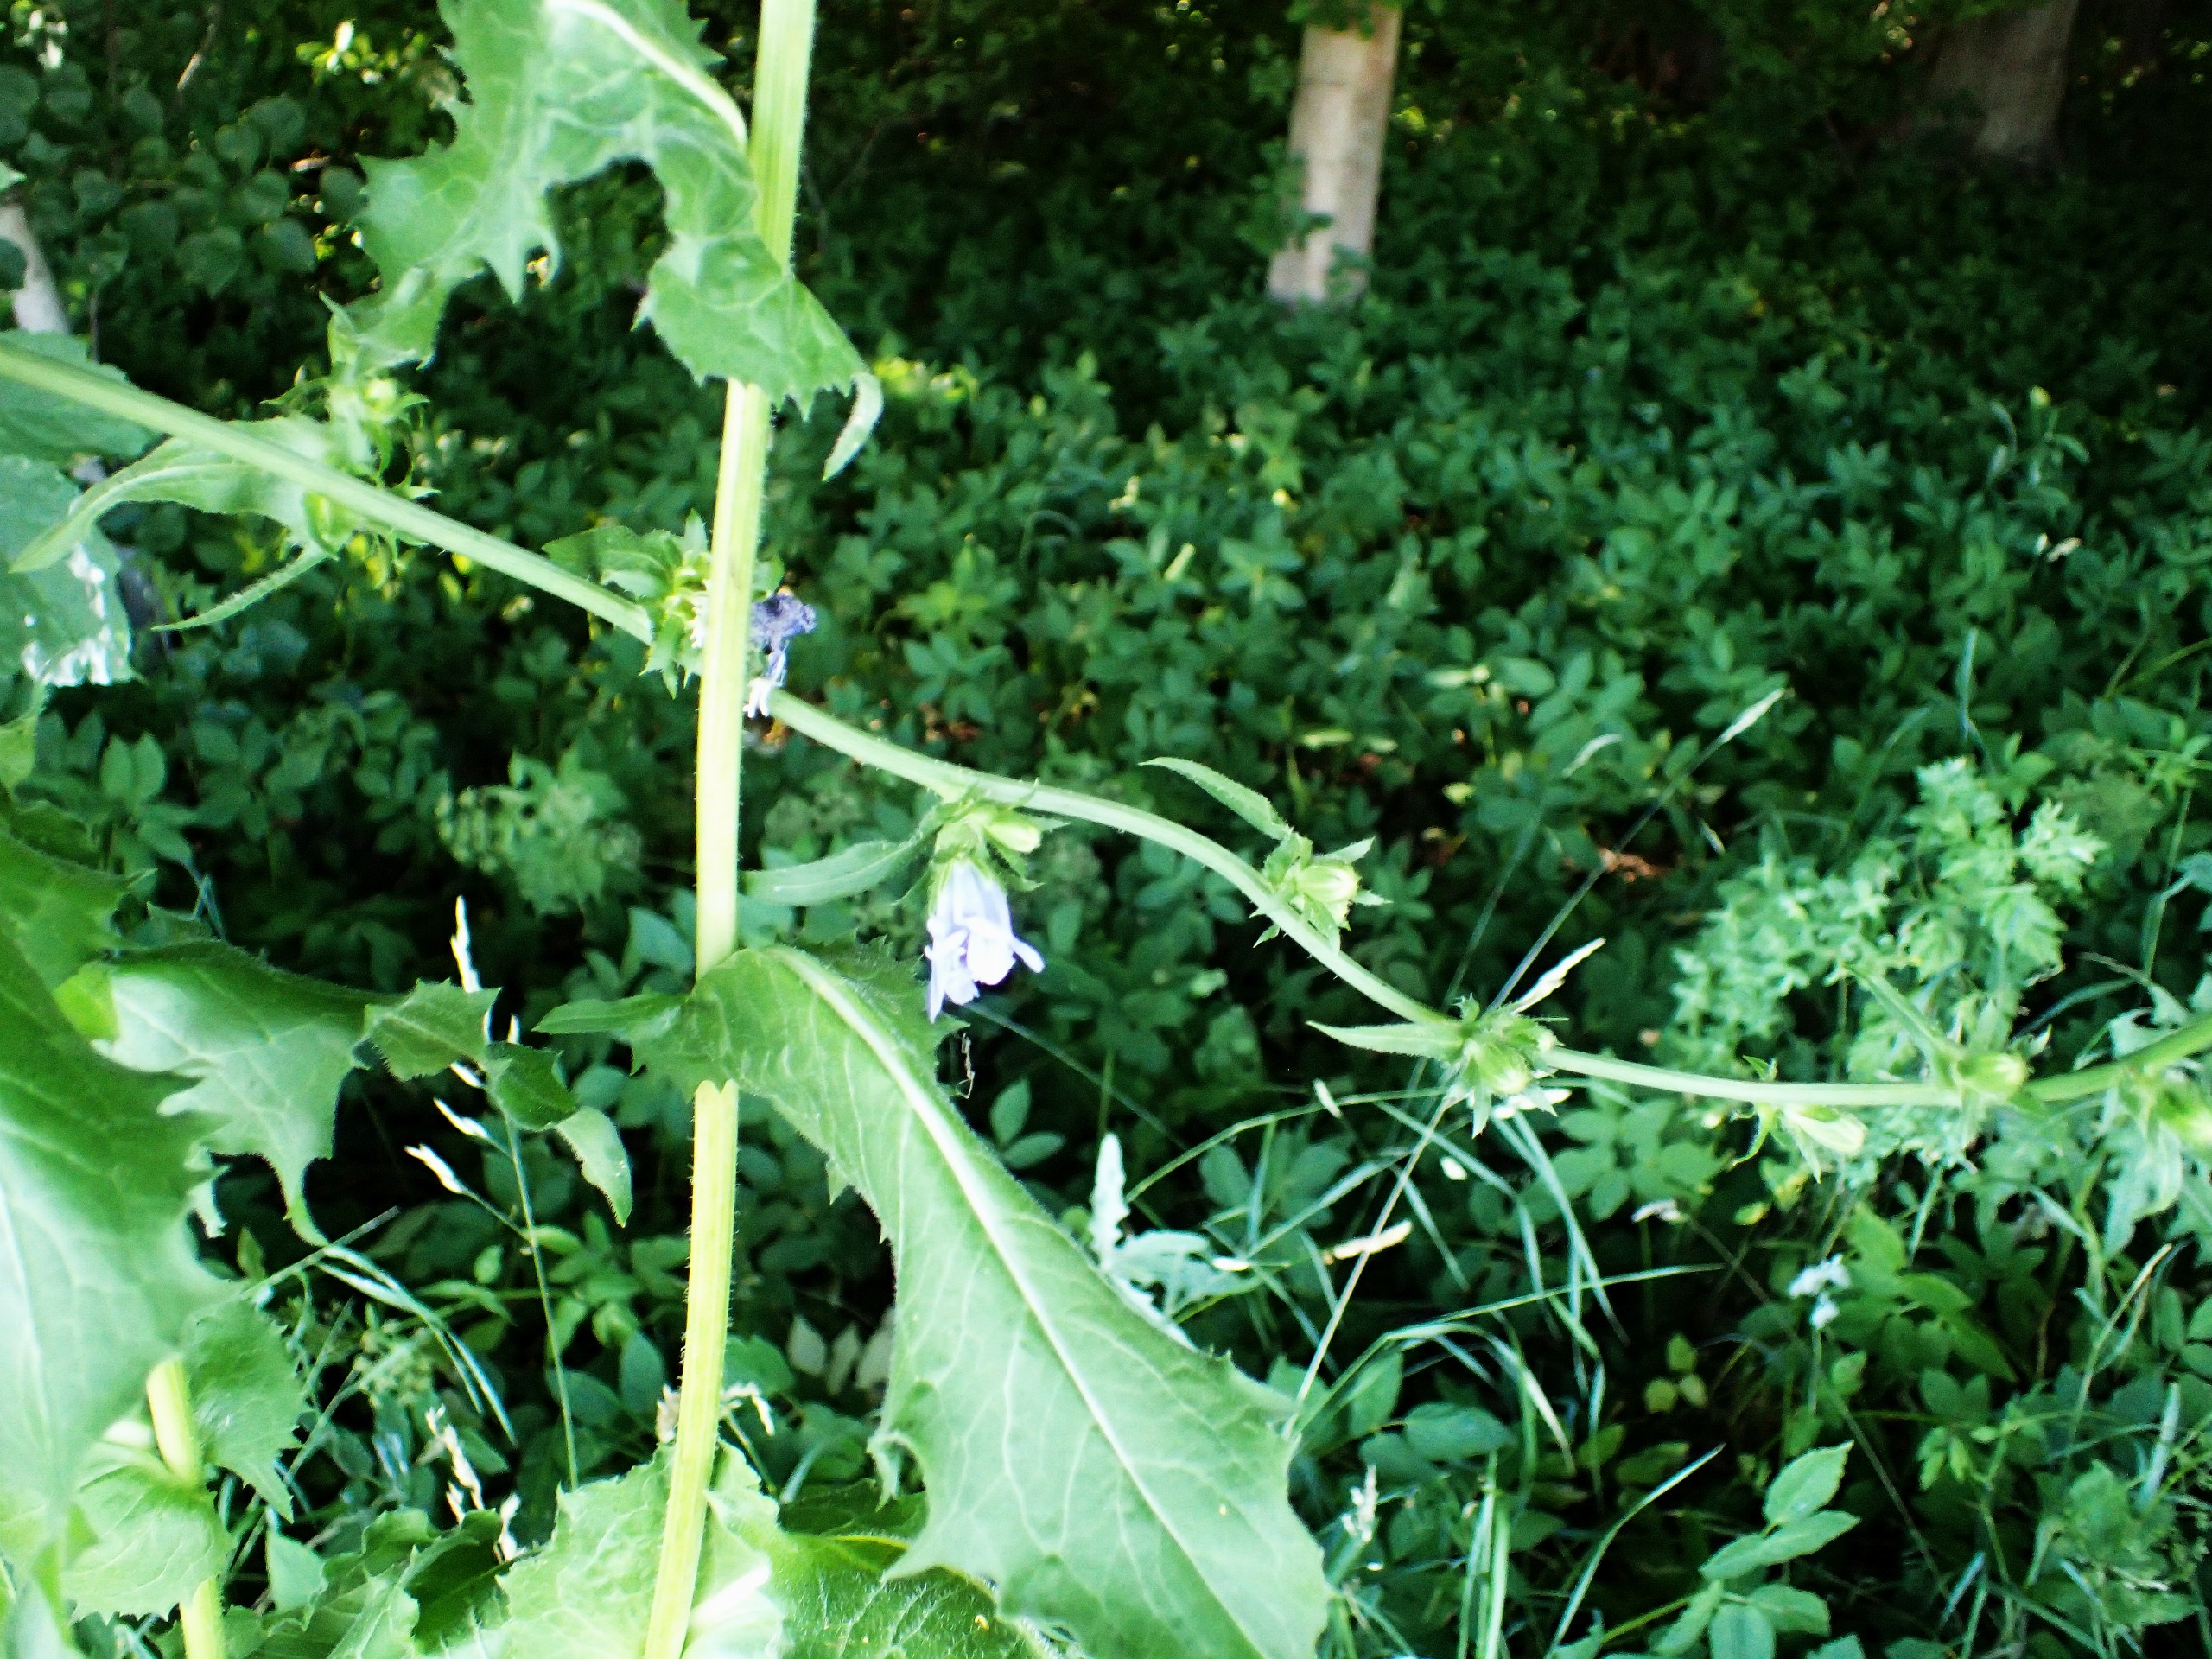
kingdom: Plantae
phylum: Tracheophyta
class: Magnoliopsida
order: Asterales
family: Asteraceae
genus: Cichorium
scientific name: Cichorium intybus
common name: Cikorie
